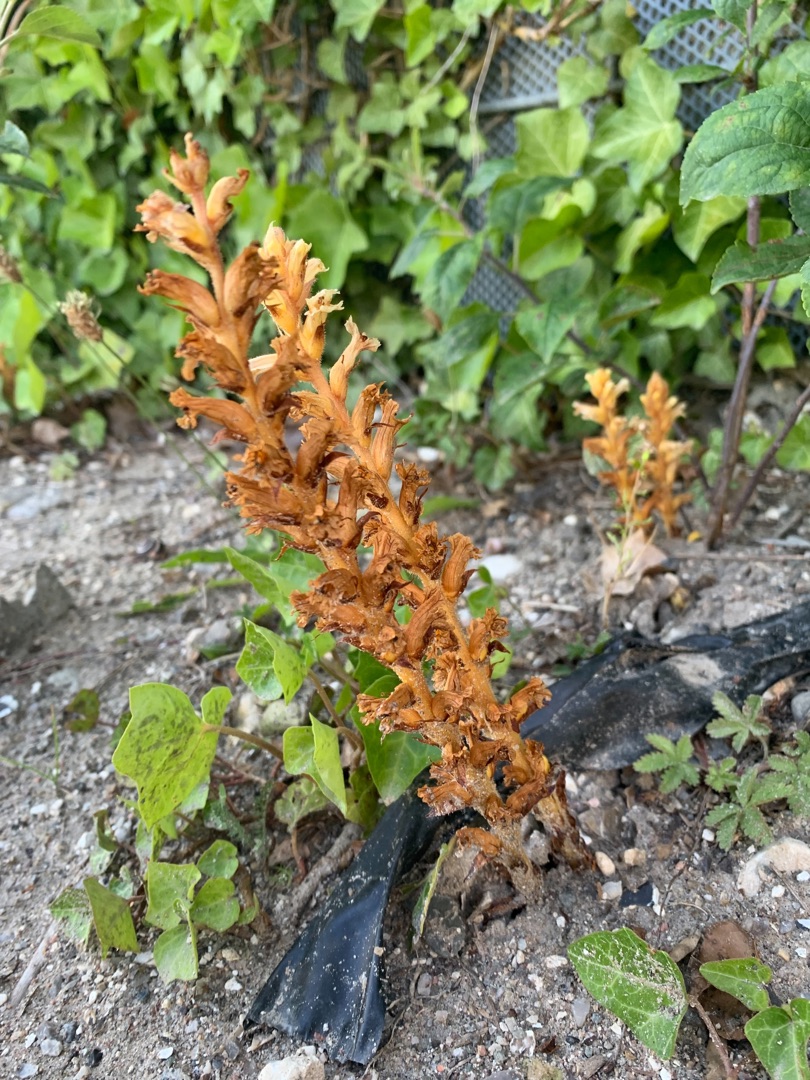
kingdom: Plantae
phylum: Tracheophyta
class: Magnoliopsida
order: Lamiales
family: Orobanchaceae
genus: Orobanche
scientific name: Orobanche hederae
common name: Vedbend-gyvelkvæler
